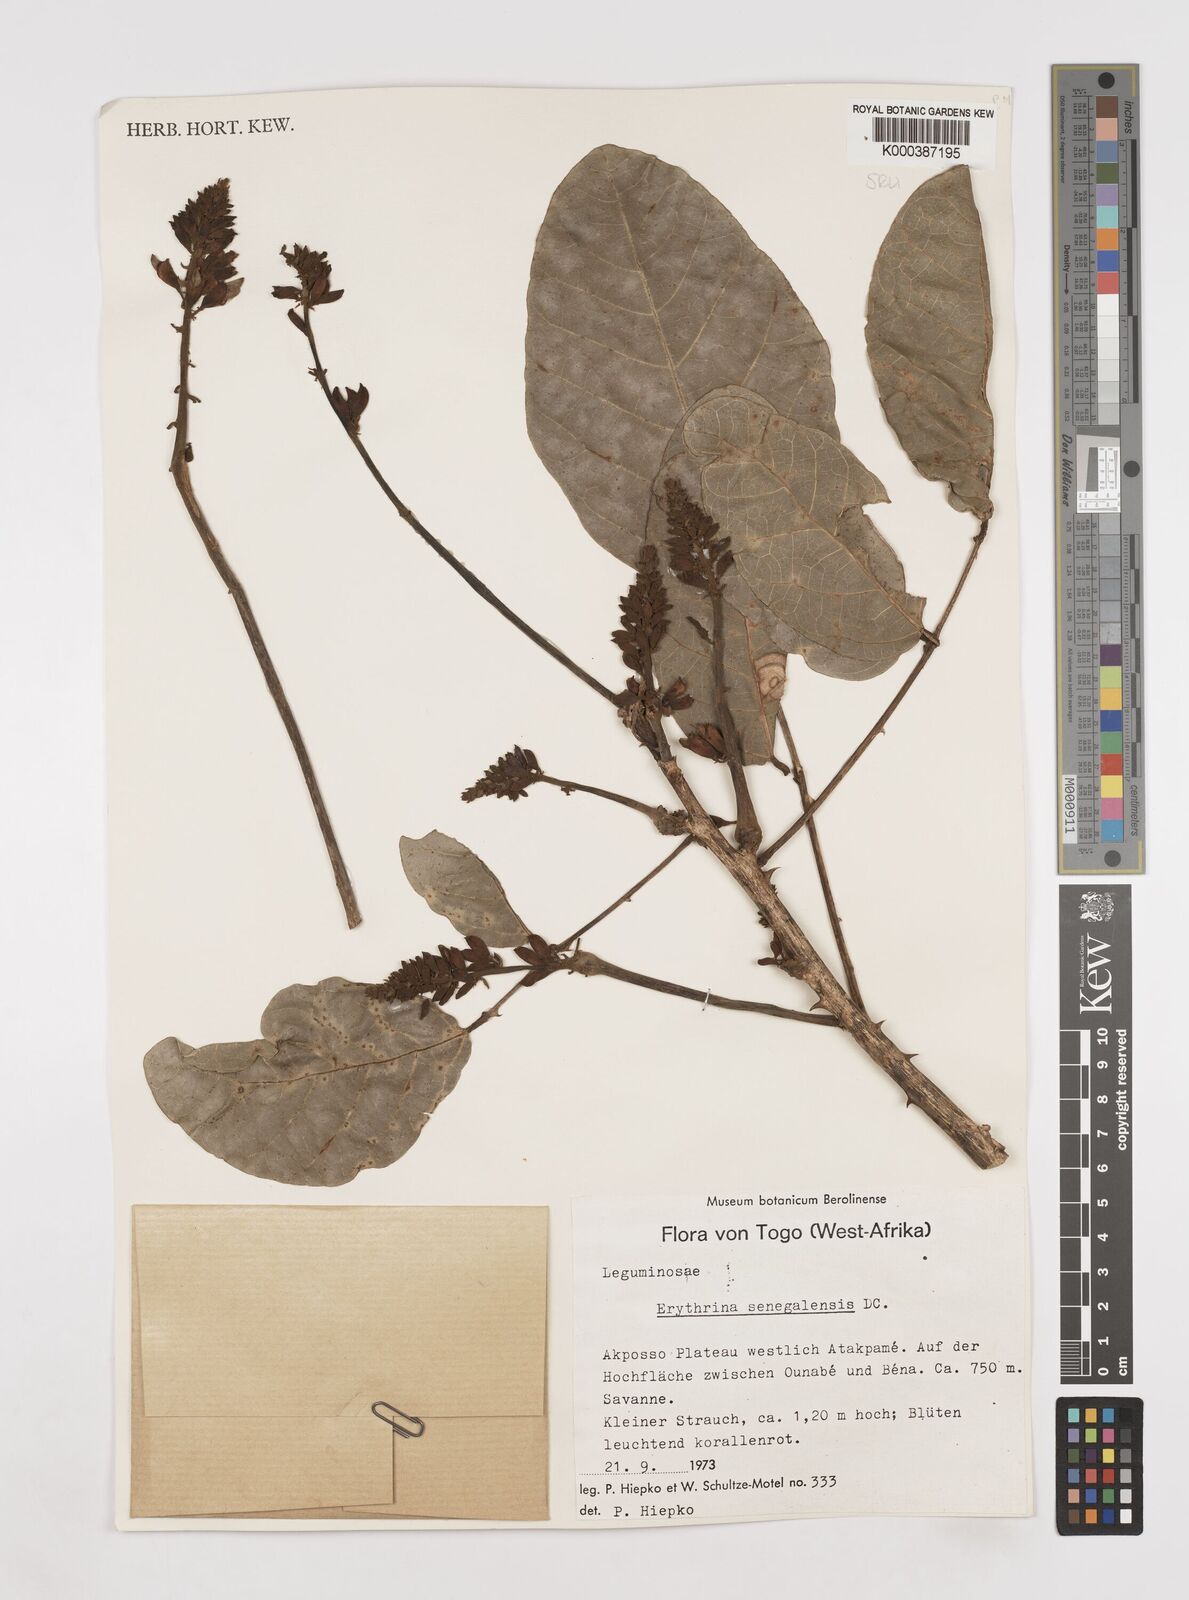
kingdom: Plantae
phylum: Tracheophyta
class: Magnoliopsida
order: Fabales
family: Fabaceae
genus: Erythrina
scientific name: Erythrina senegalensis
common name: Senegal coraltree
